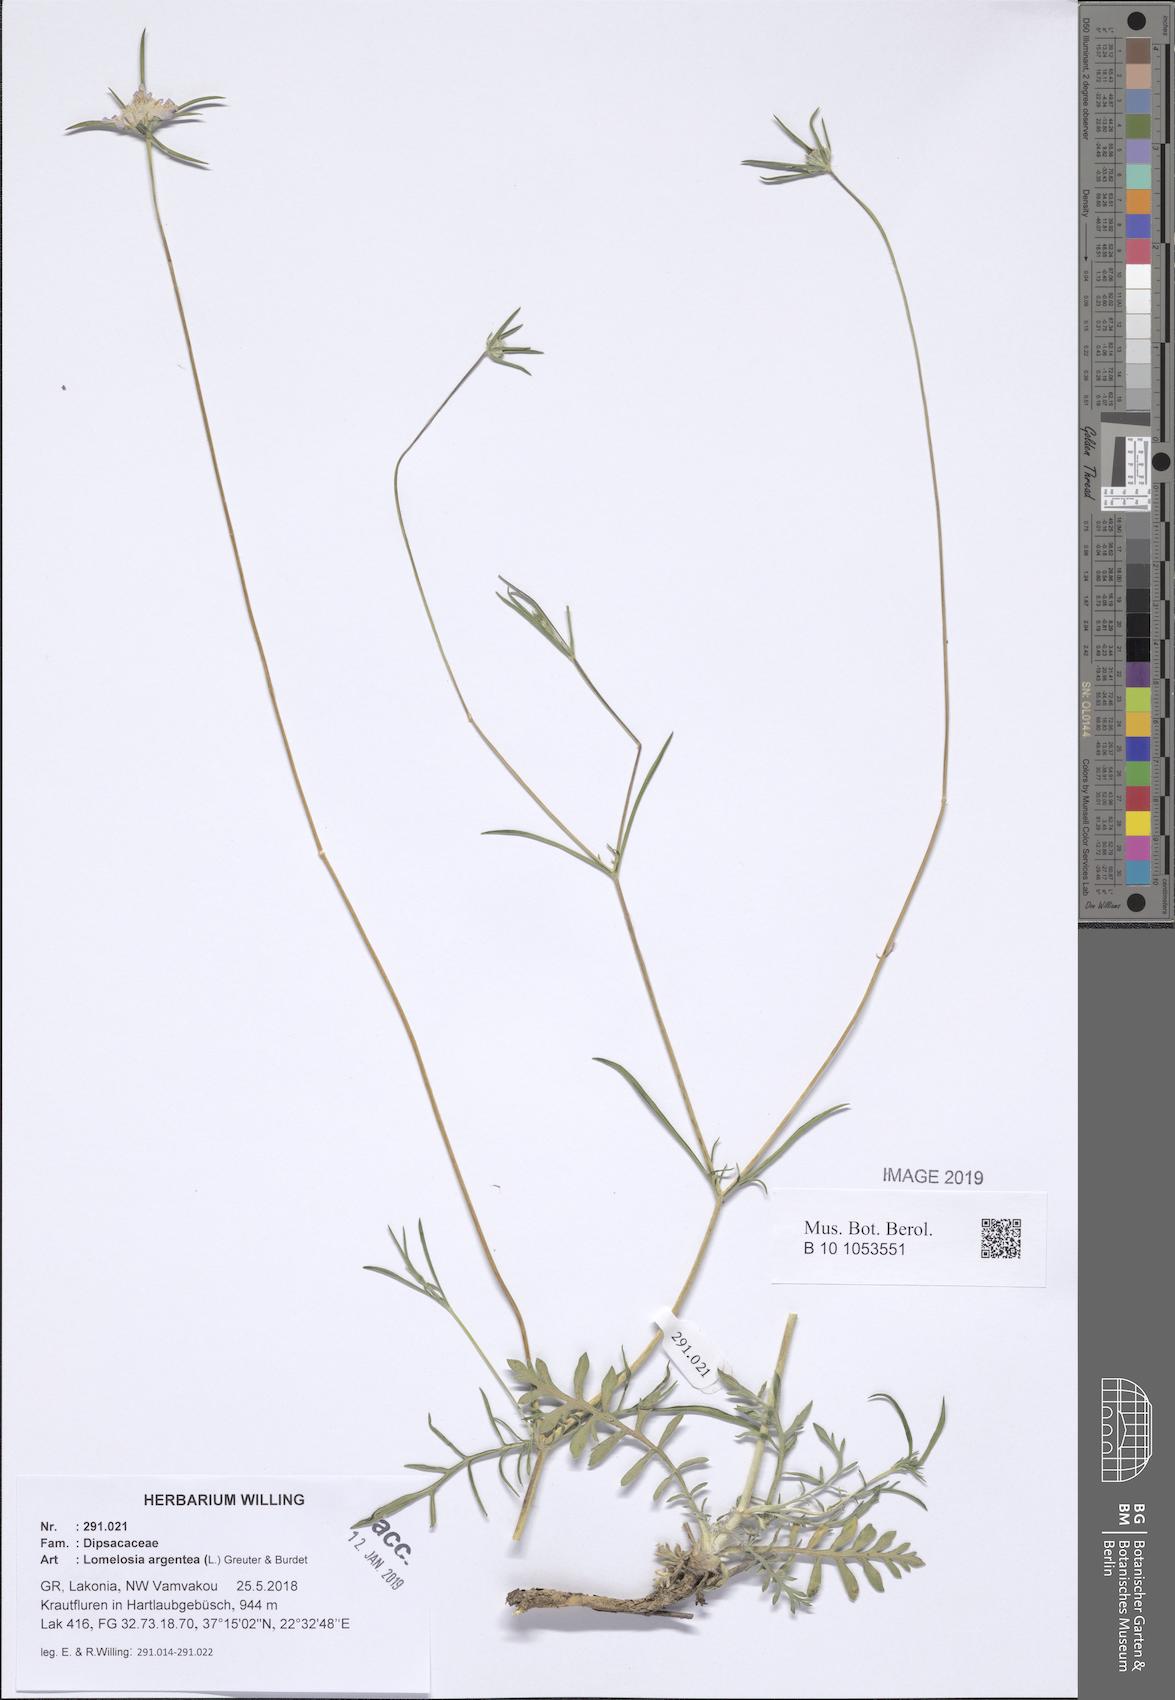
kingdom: Plantae
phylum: Tracheophyta
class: Magnoliopsida
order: Dipsacales
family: Caprifoliaceae
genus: Lomelosia
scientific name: Lomelosia argentea
